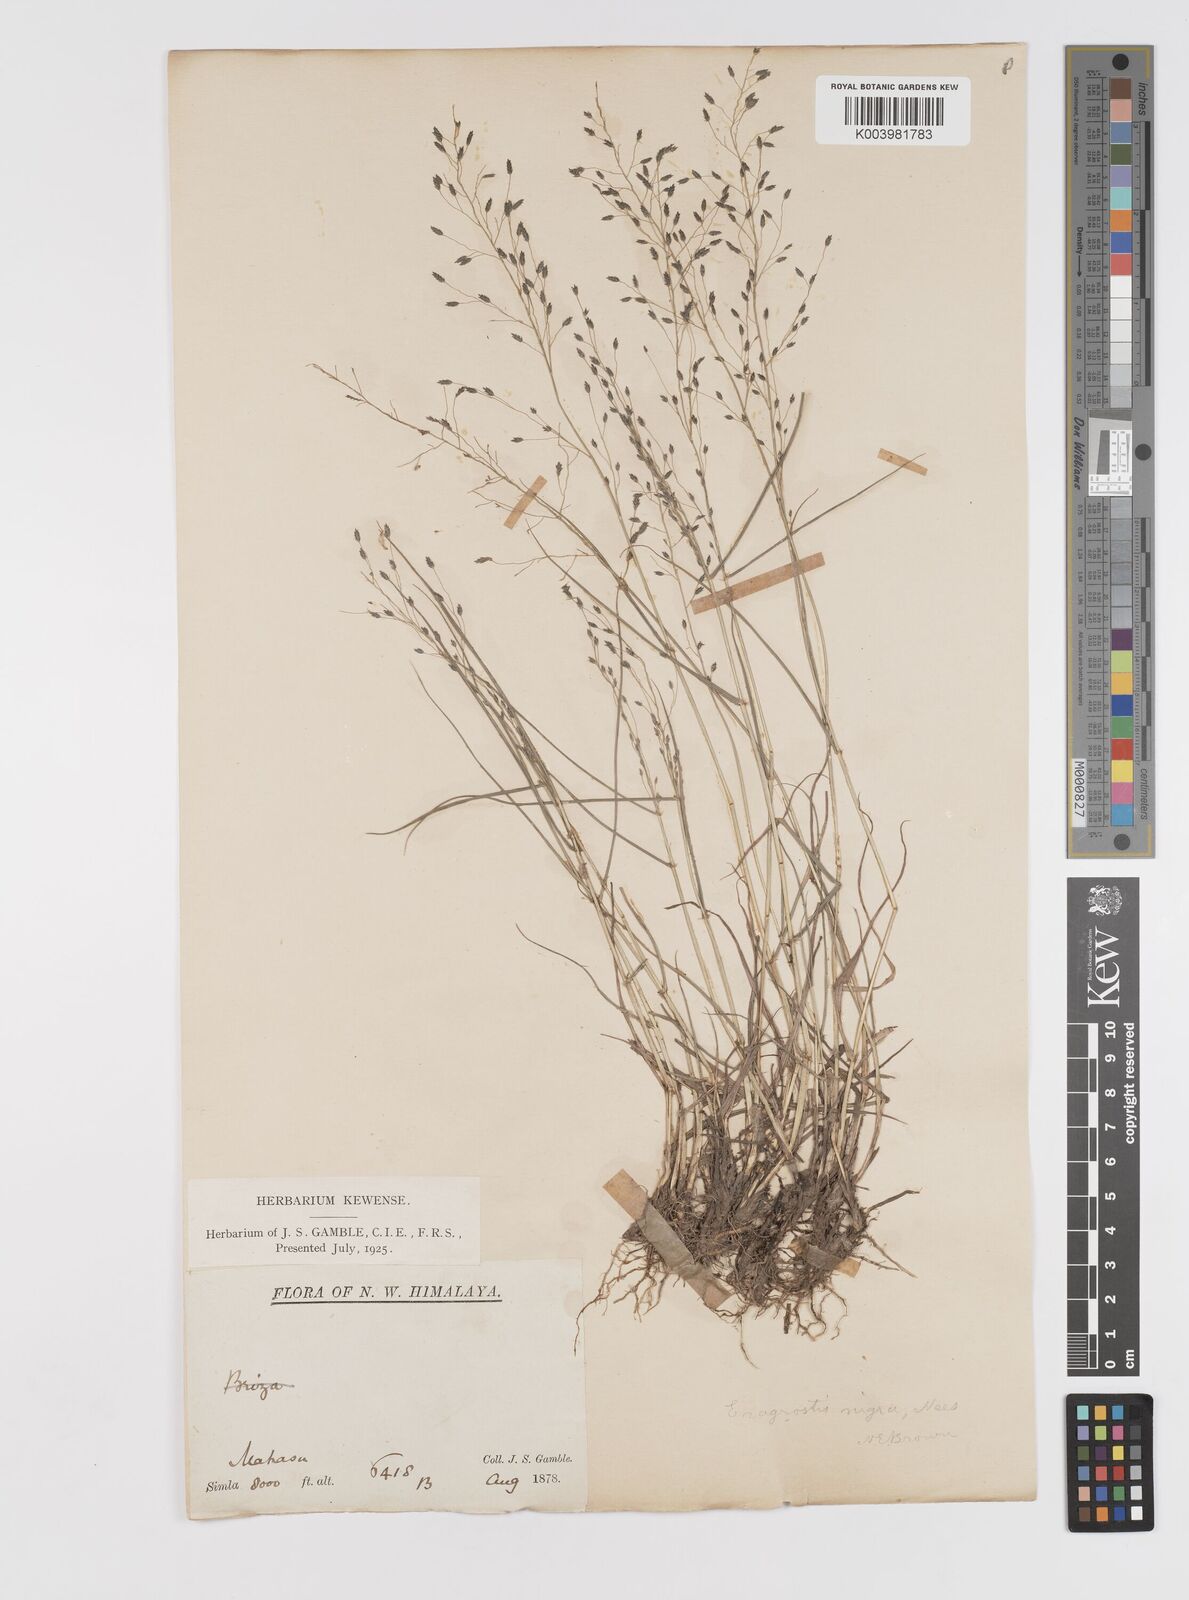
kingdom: Plantae
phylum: Tracheophyta
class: Liliopsida
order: Poales
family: Poaceae
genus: Eragrostis
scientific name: Eragrostis nigra
